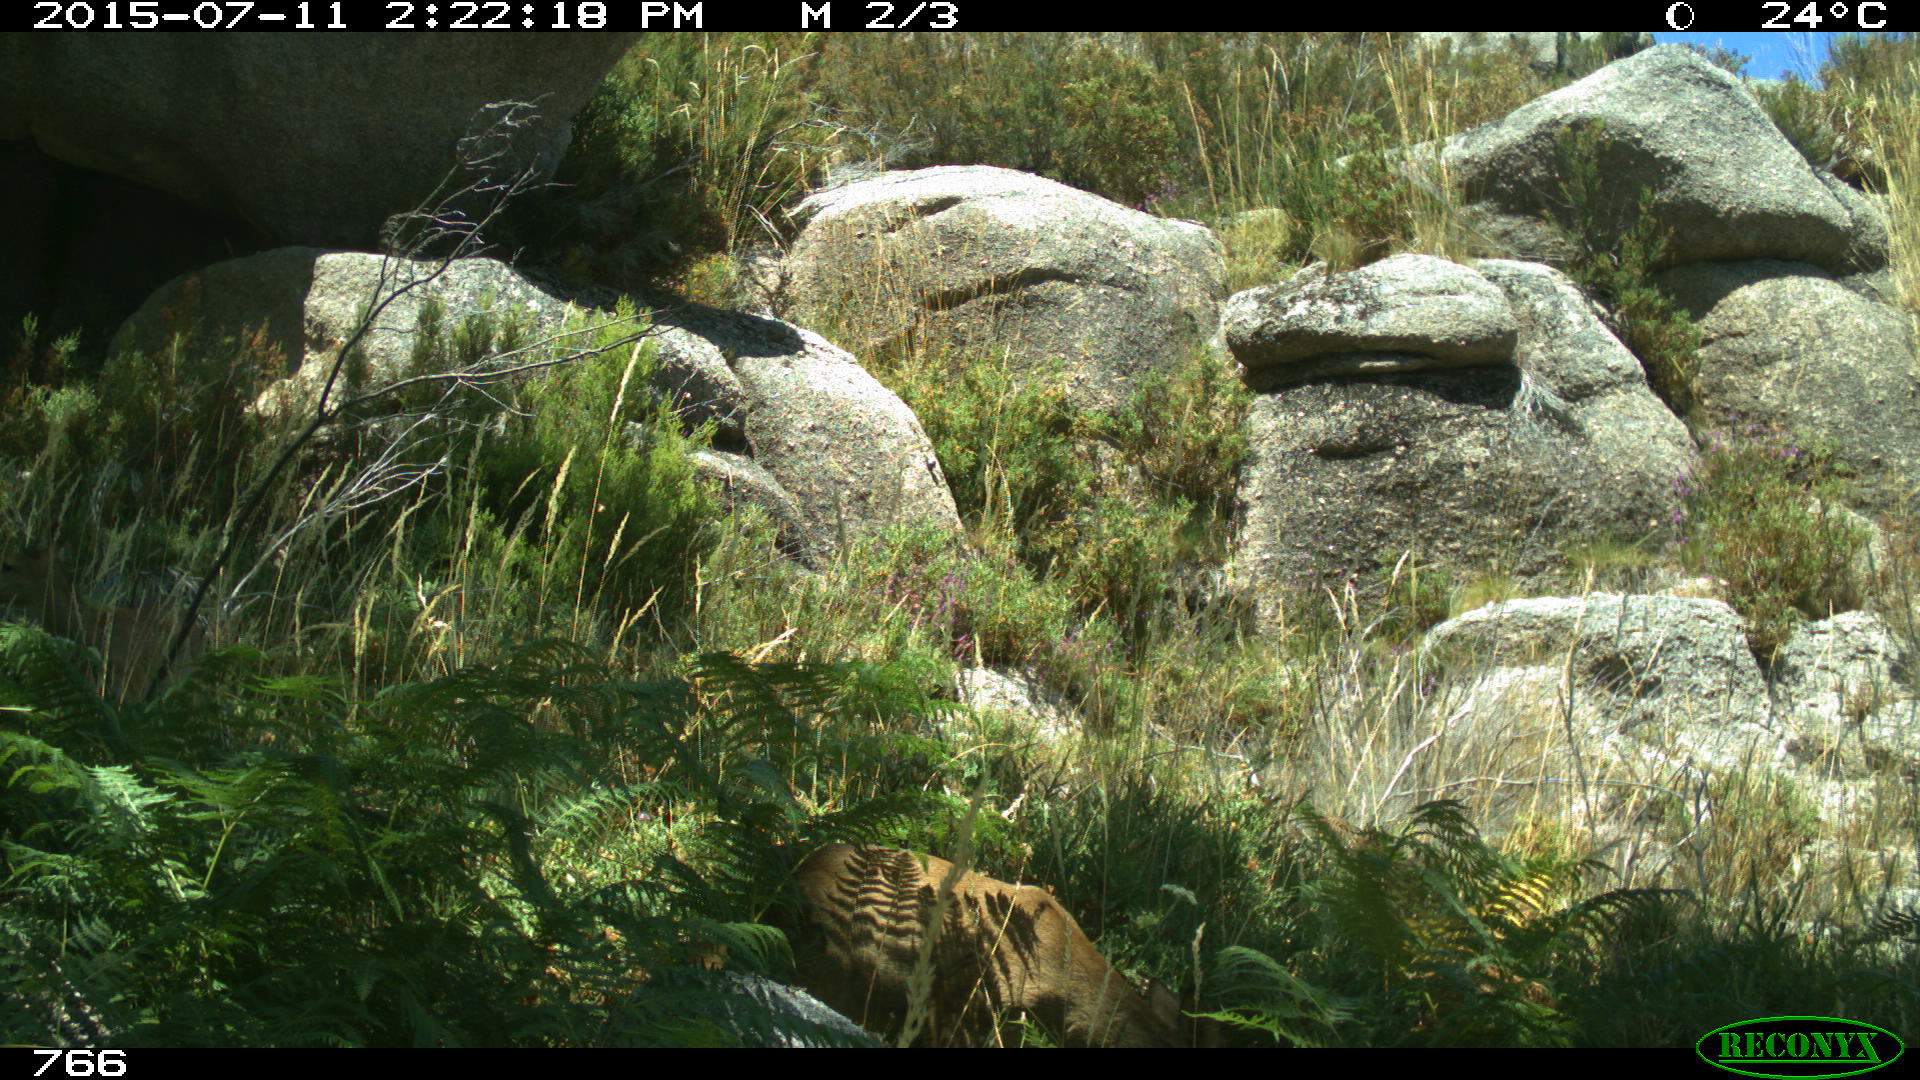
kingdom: Animalia
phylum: Chordata
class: Mammalia
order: Artiodactyla
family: Cervidae
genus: Capreolus
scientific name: Capreolus capreolus
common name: Western roe deer
